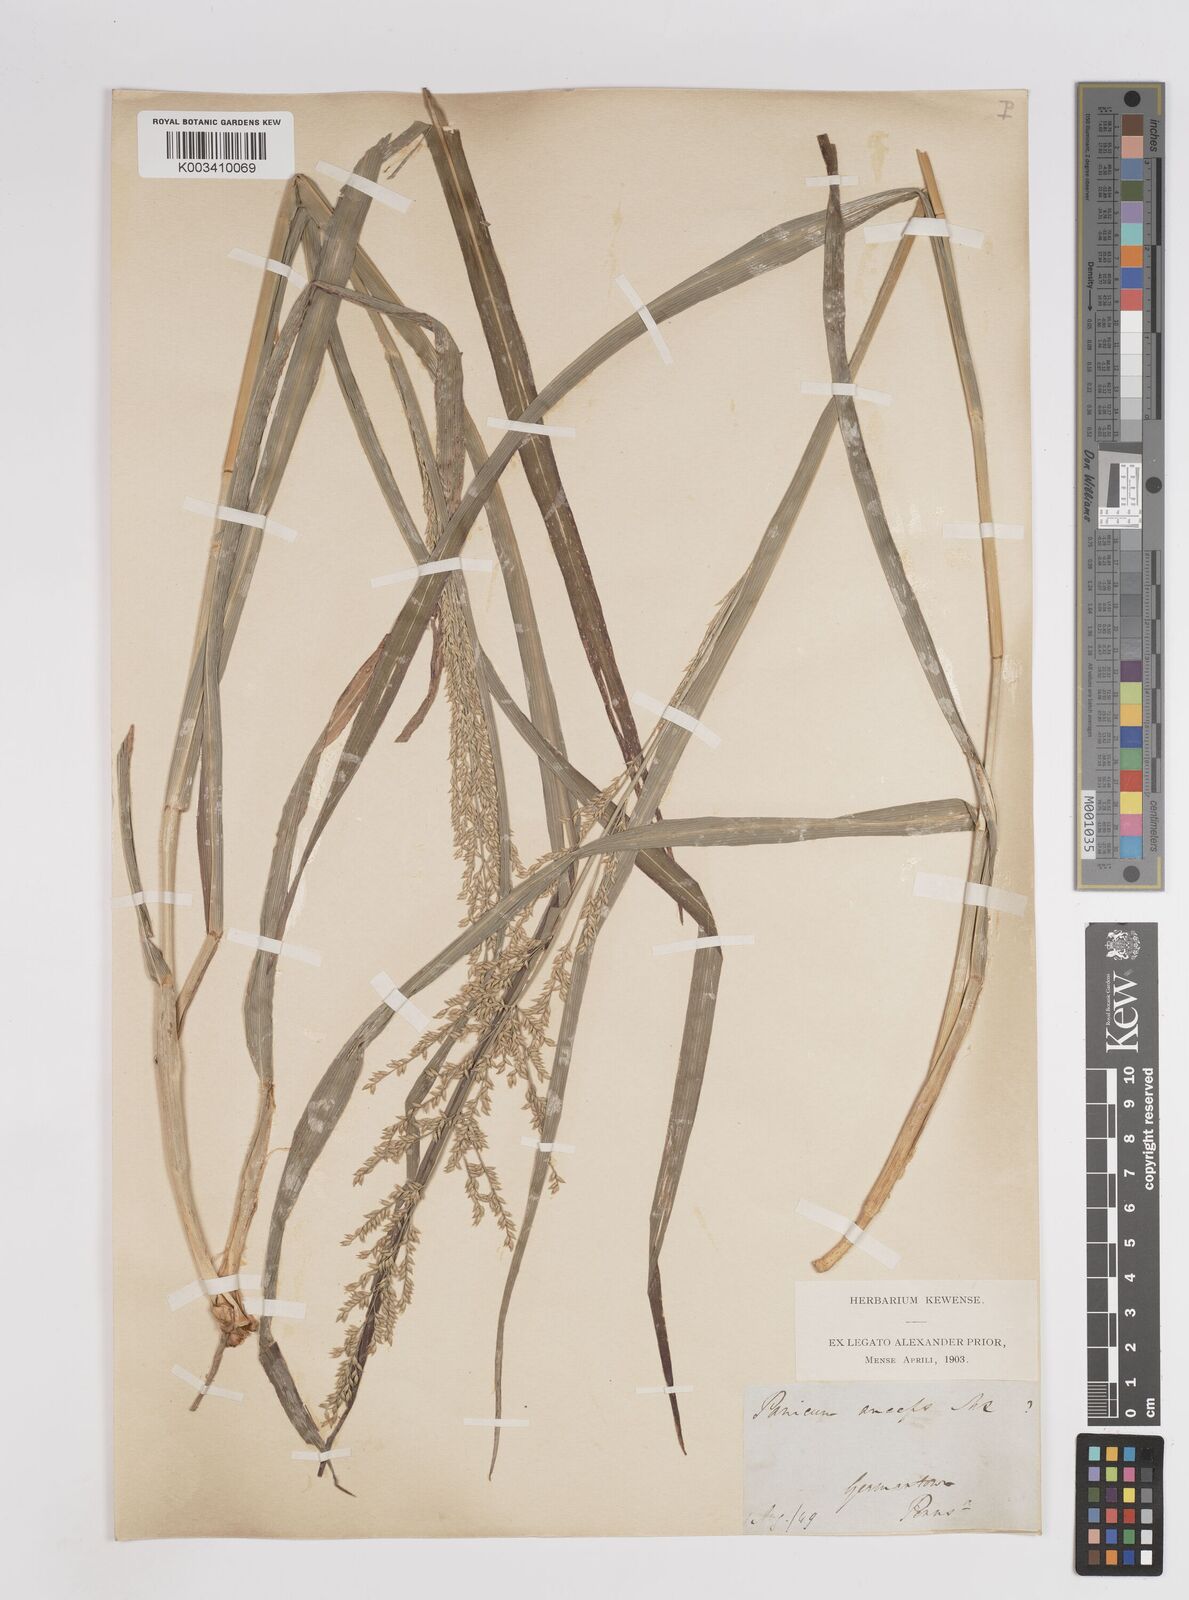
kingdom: Plantae
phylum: Tracheophyta
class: Liliopsida
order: Poales
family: Poaceae
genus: Coleataenia
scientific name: Coleataenia anceps
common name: Beaked panic grass
